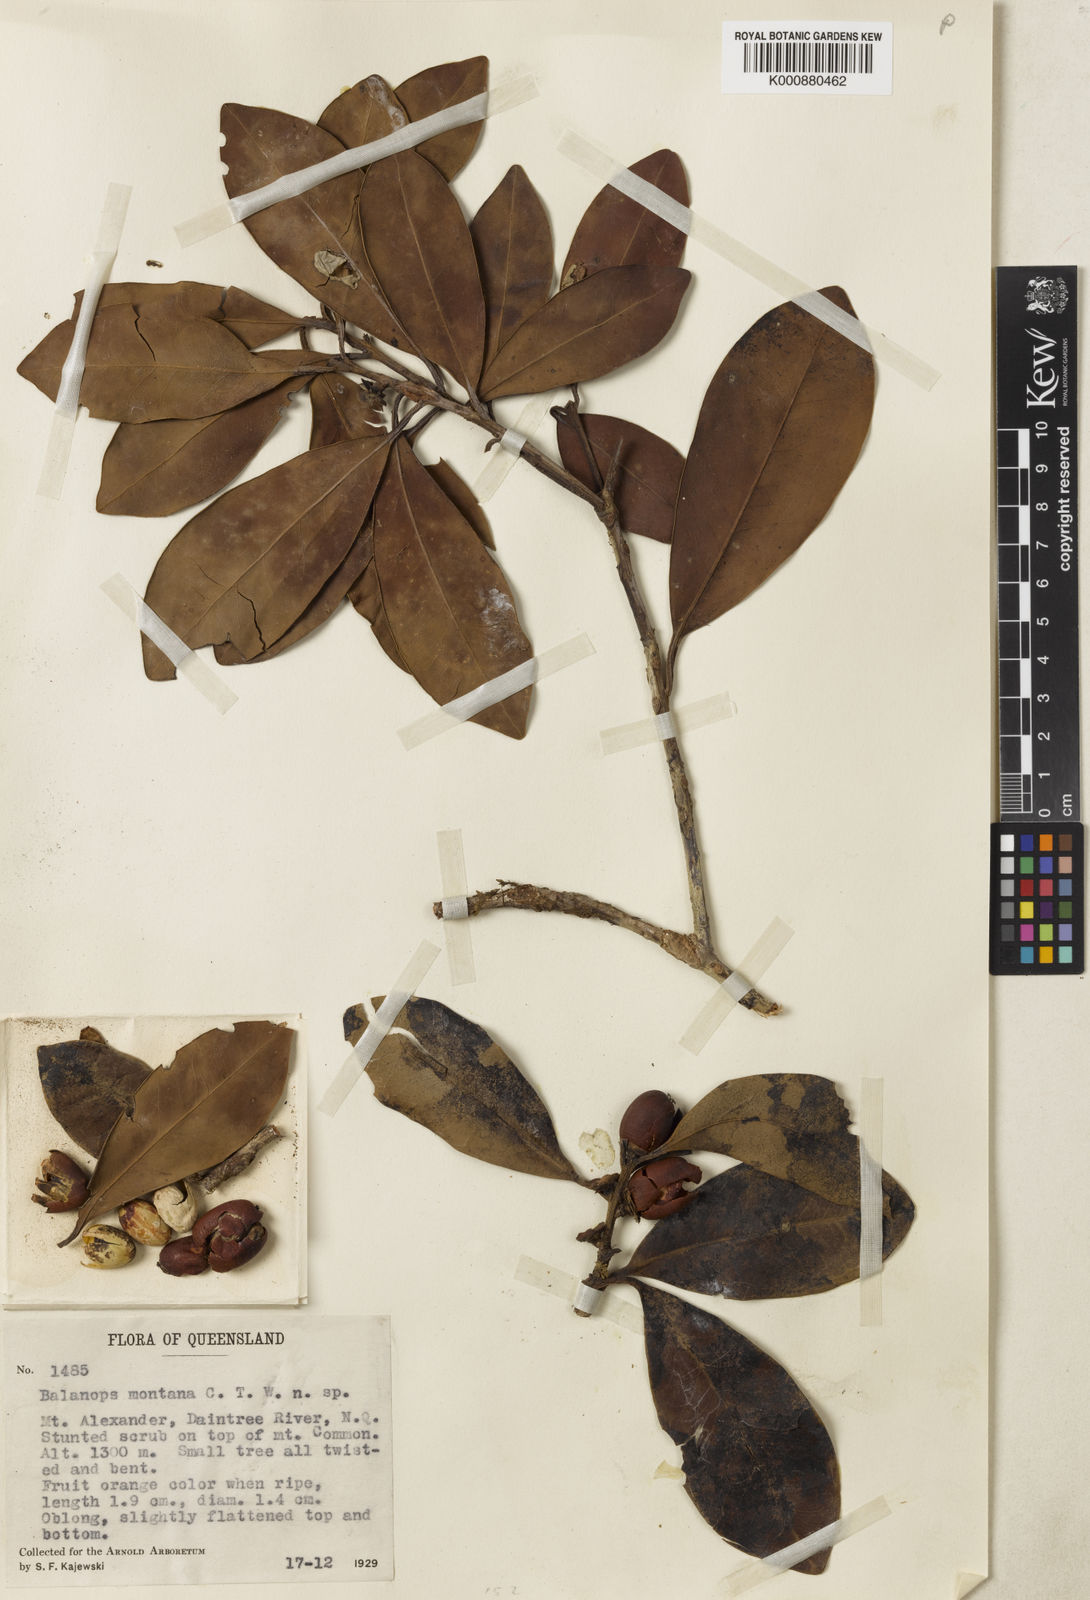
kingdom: Plantae
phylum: Tracheophyta
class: Magnoliopsida
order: Malpighiales
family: Balanopaceae
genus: Balanops
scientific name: Balanops australiana
